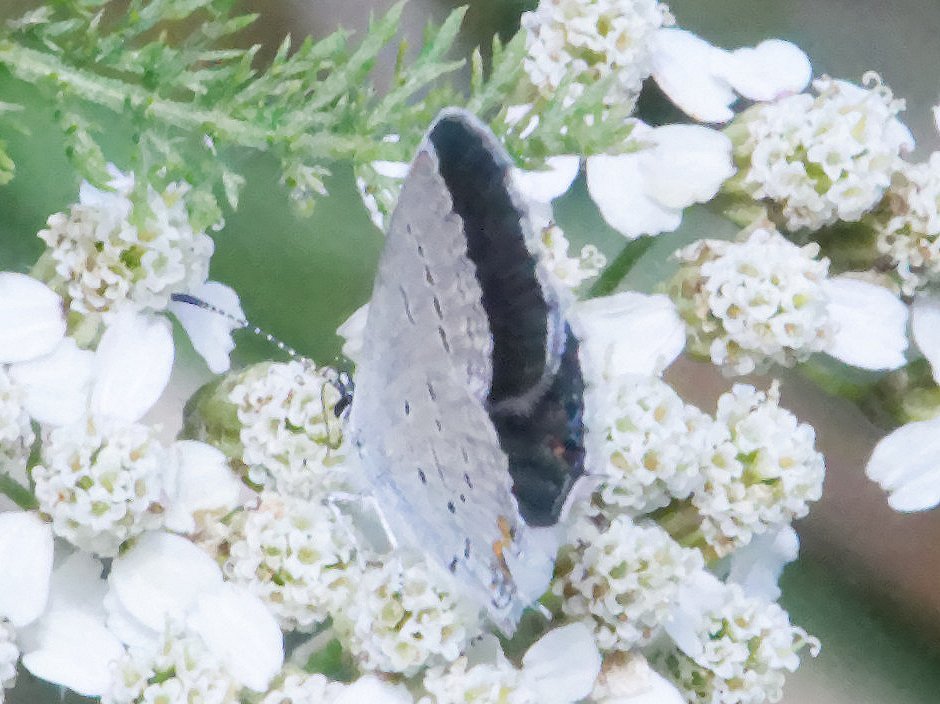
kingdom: Animalia
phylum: Arthropoda
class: Insecta
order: Lepidoptera
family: Lycaenidae
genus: Elkalyce
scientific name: Elkalyce comyntas
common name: Eastern Tailed-Blue
